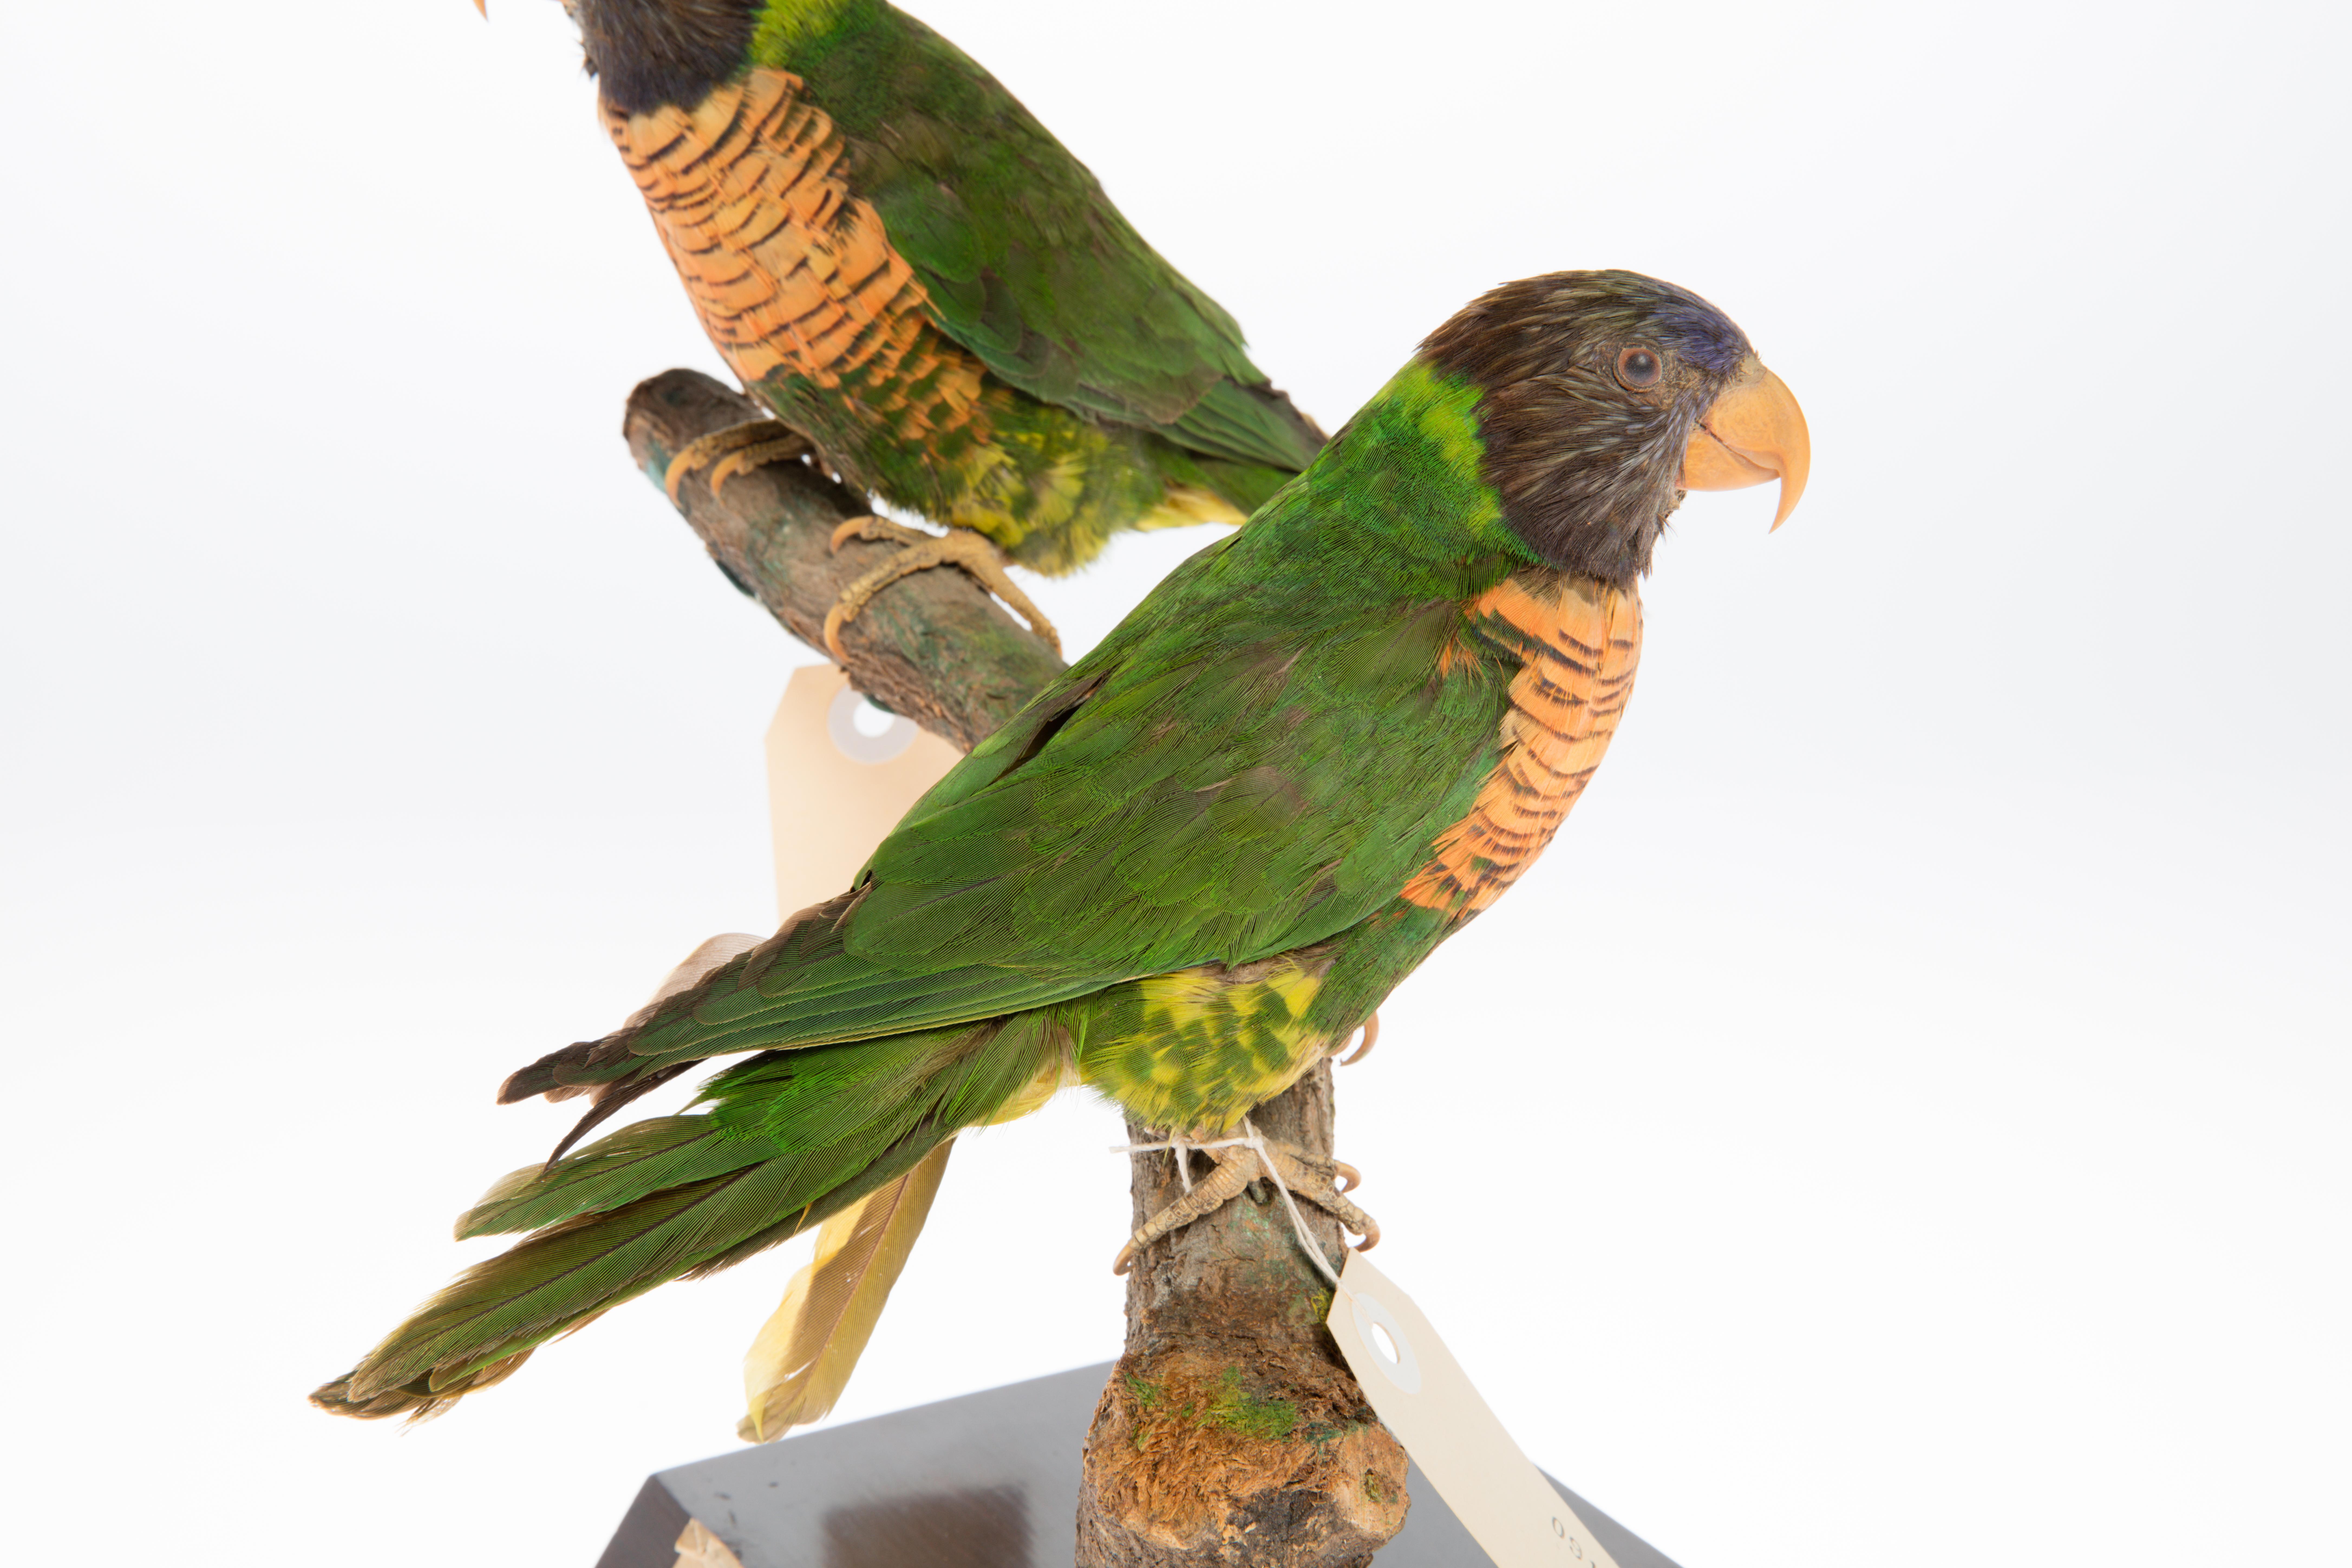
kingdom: Animalia
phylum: Chordata
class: Aves
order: Psittaciformes
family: Psittacidae
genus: Trichoglossus
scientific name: Trichoglossus haematodus
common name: Coconut lorikeet
